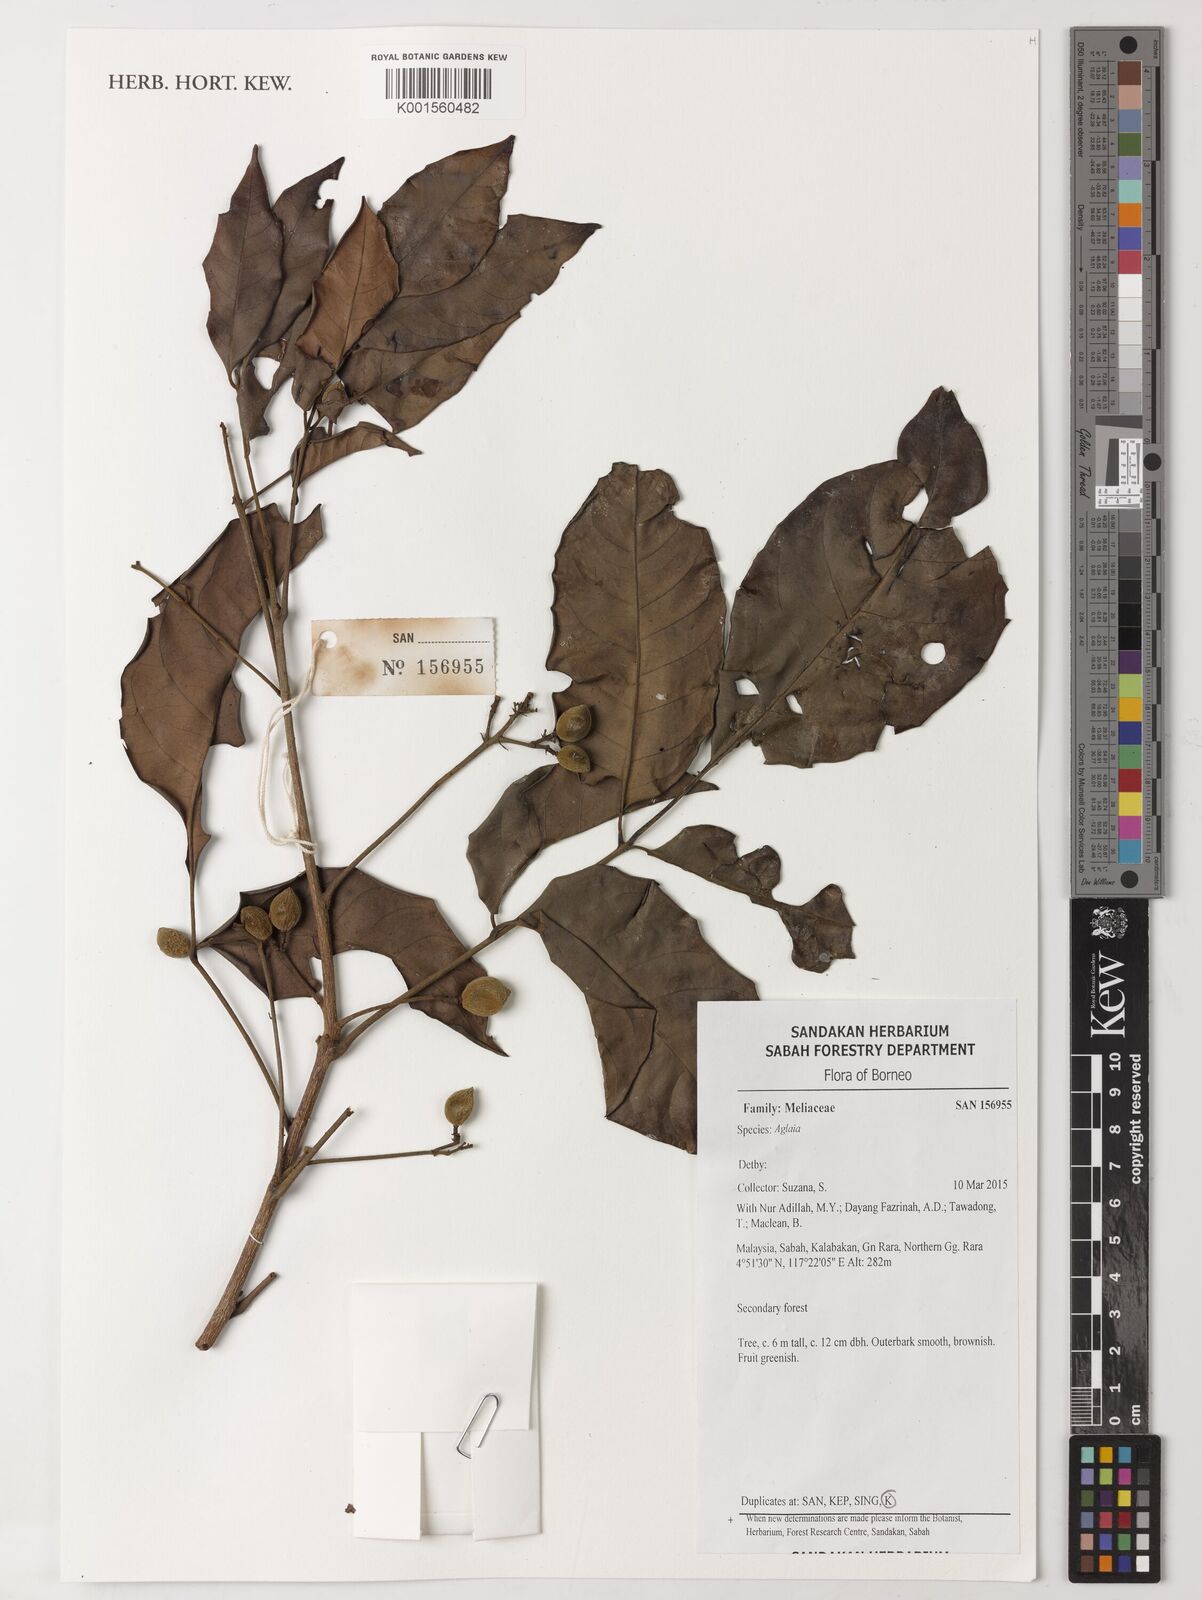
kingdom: Plantae
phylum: Tracheophyta
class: Magnoliopsida
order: Sapindales
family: Meliaceae
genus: Aglaia
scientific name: Aglaia
